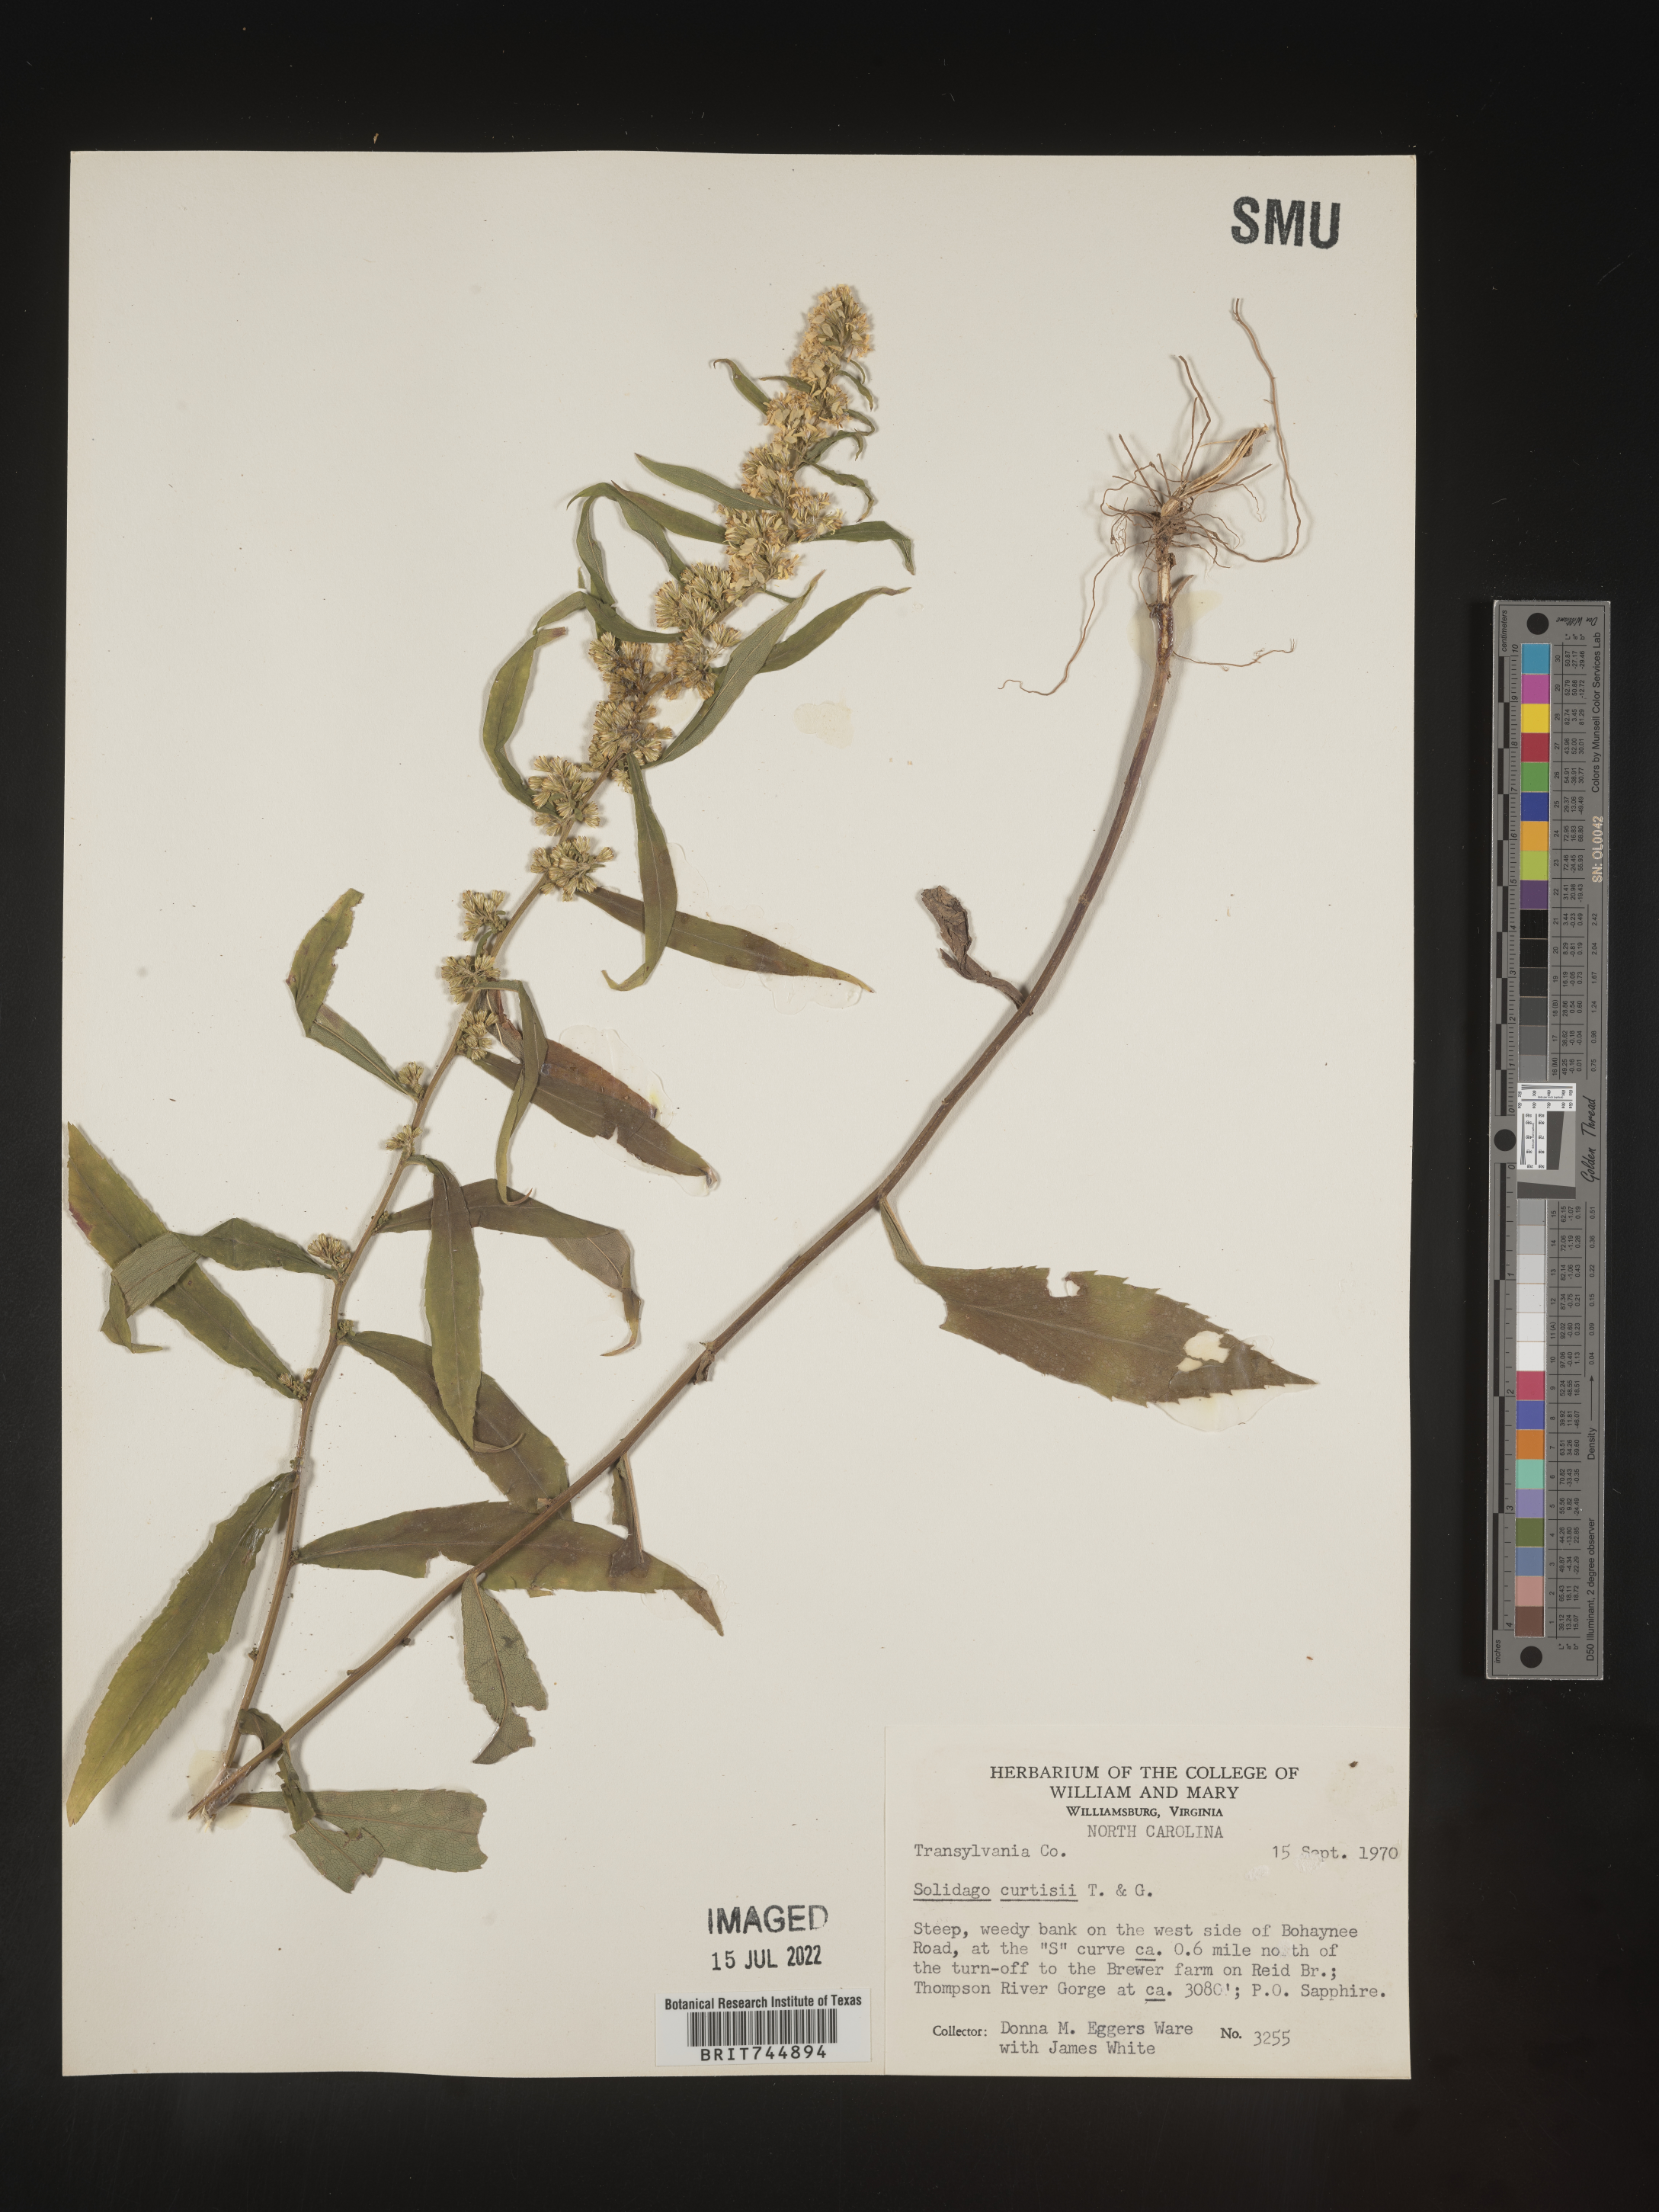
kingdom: Plantae
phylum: Tracheophyta
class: Magnoliopsida
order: Asterales
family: Asteraceae
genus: Solidago
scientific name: Solidago curtisii
